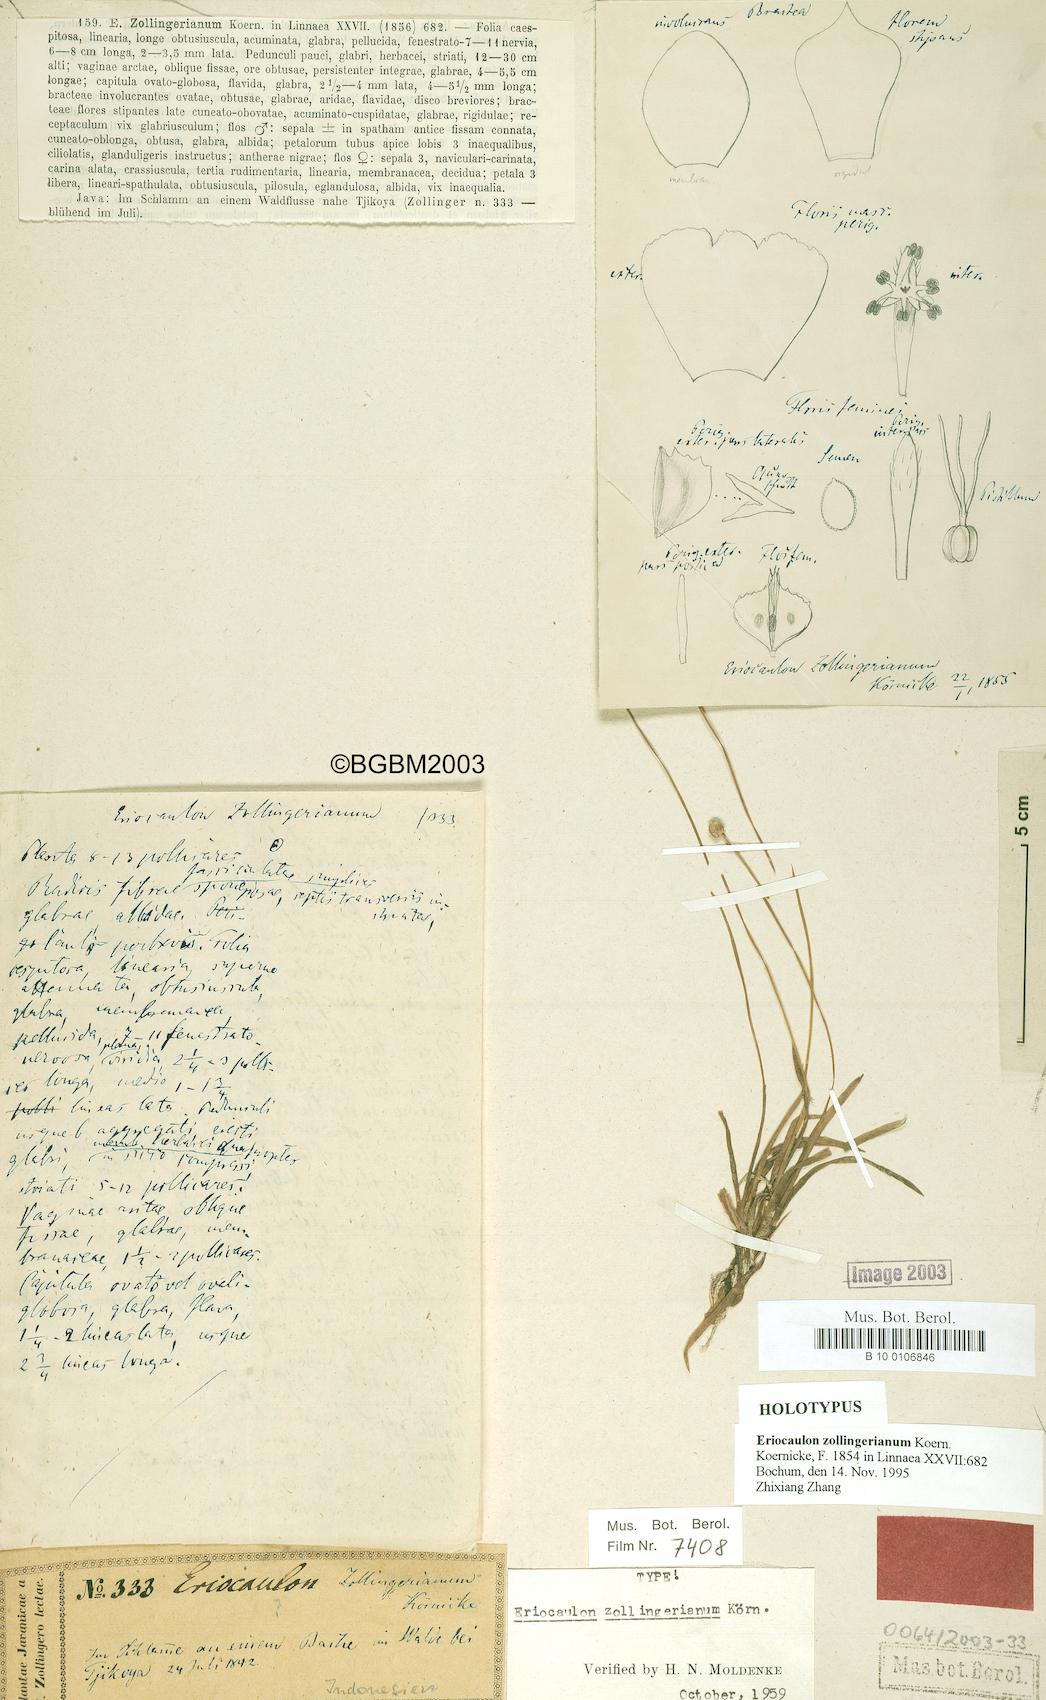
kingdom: Plantae
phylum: Tracheophyta
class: Liliopsida
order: Poales
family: Eriocaulaceae
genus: Eriocaulon
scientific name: Eriocaulon zollingerianum
